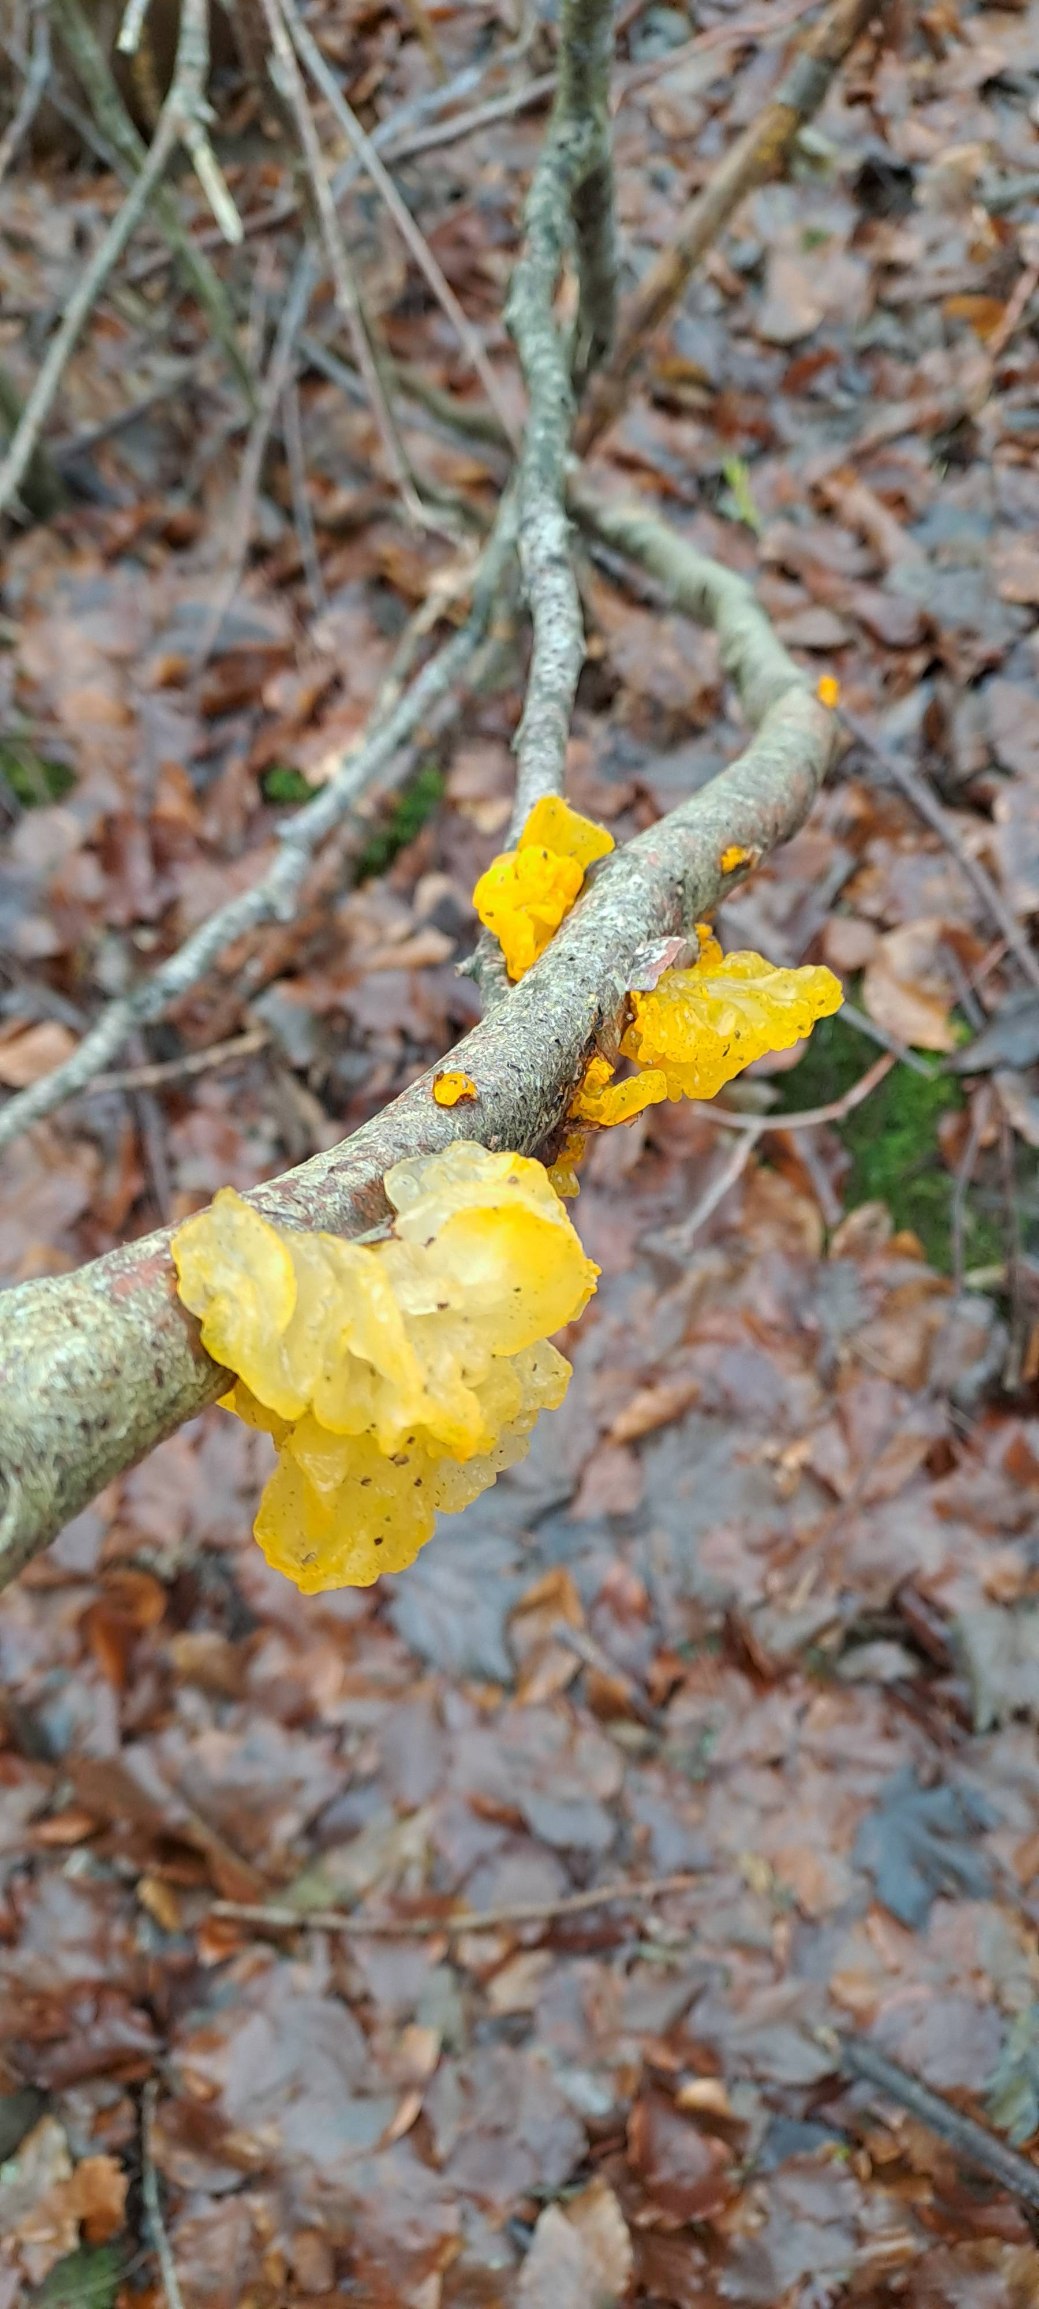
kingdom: Fungi
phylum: Basidiomycota
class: Tremellomycetes
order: Tremellales
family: Tremellaceae
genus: Tremella
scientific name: Tremella mesenterica
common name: Gul bævresvamp
